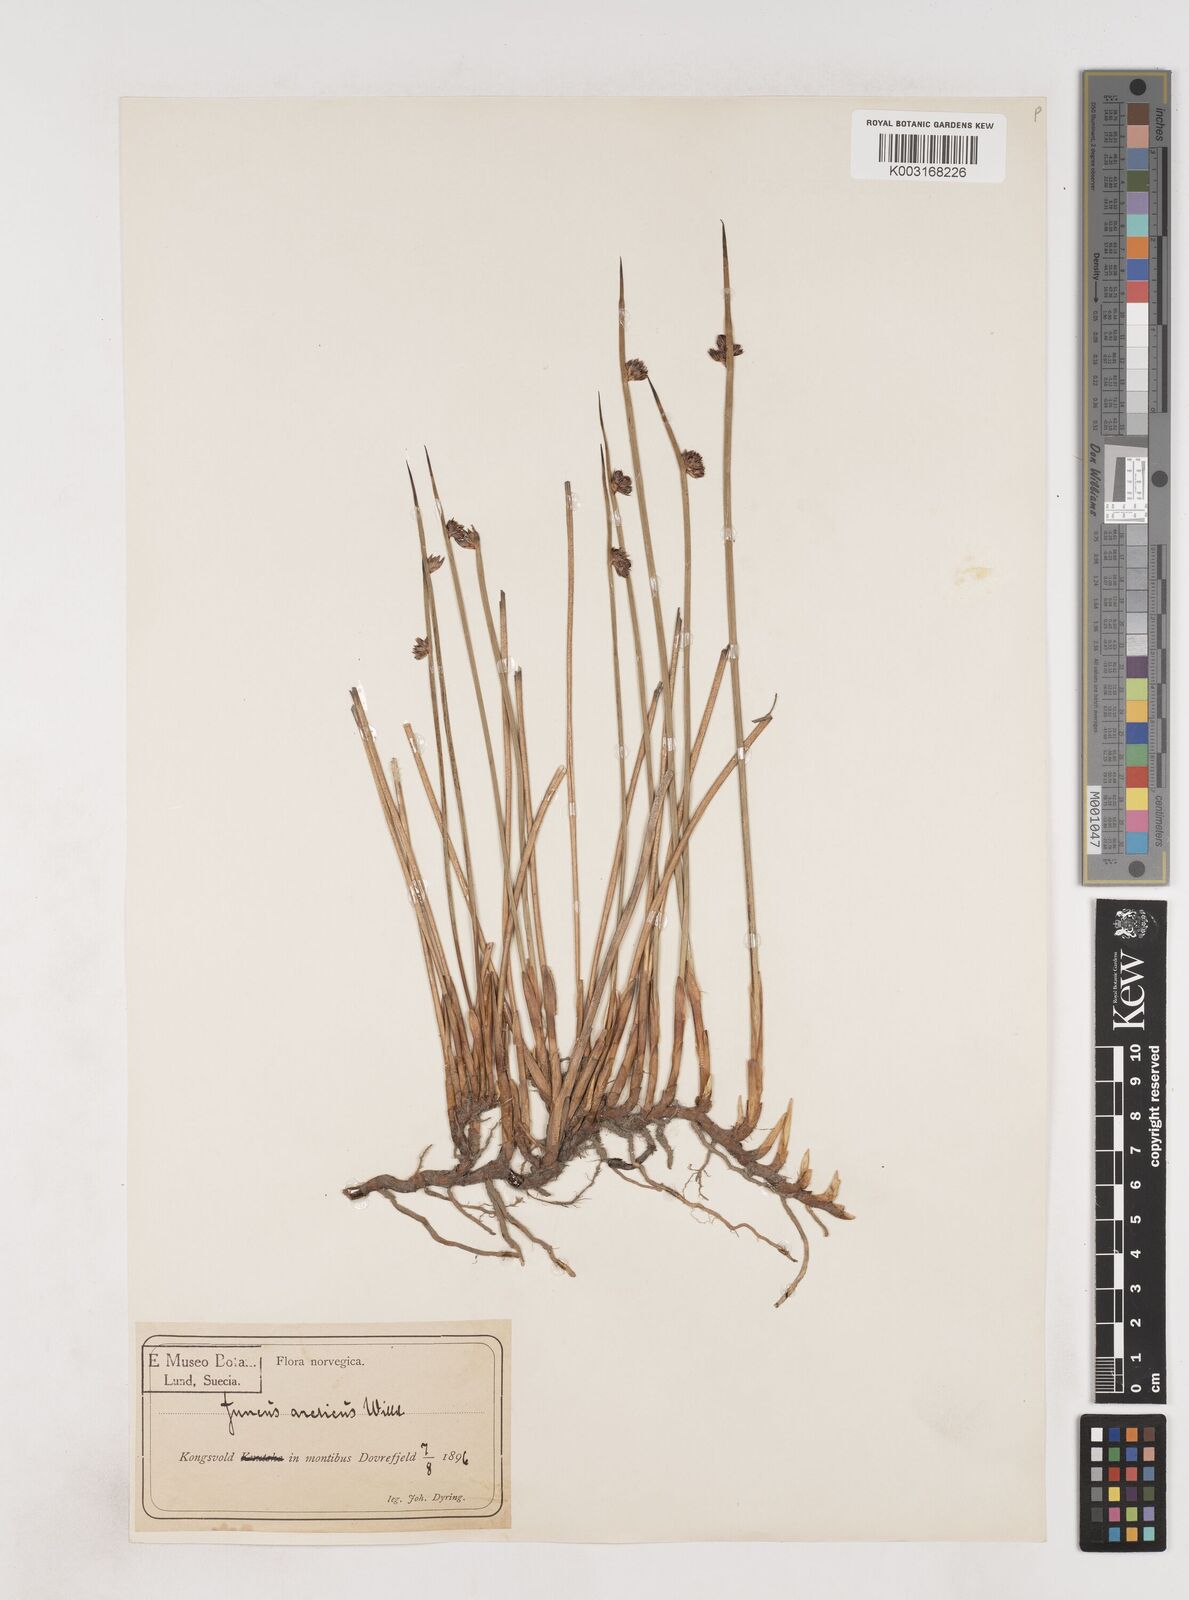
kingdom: Plantae
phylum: Tracheophyta
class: Liliopsida
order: Poales
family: Juncaceae
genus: Juncus
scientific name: Juncus arcticus
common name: Arctic rush
